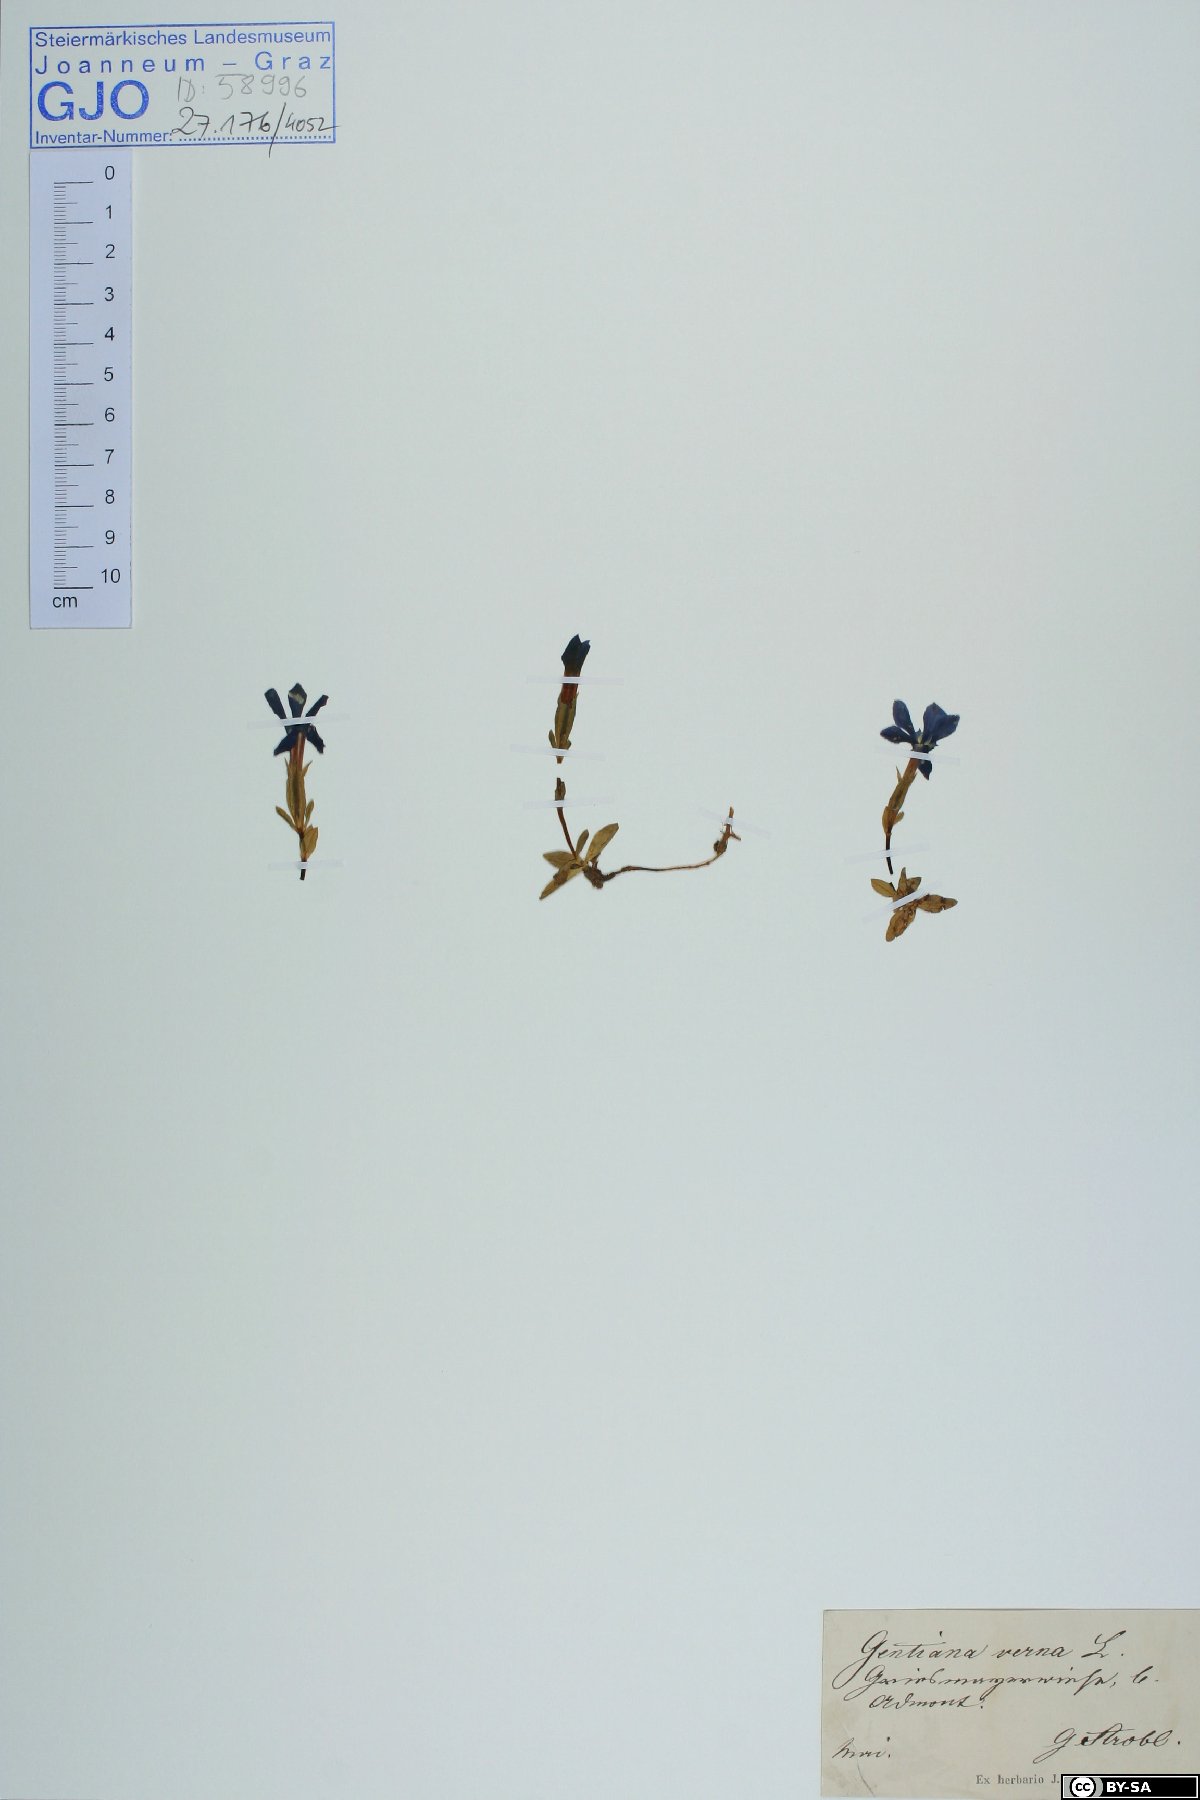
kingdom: Plantae
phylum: Tracheophyta
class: Magnoliopsida
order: Gentianales
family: Gentianaceae
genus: Gentiana
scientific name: Gentiana verna
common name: Spring gentian
